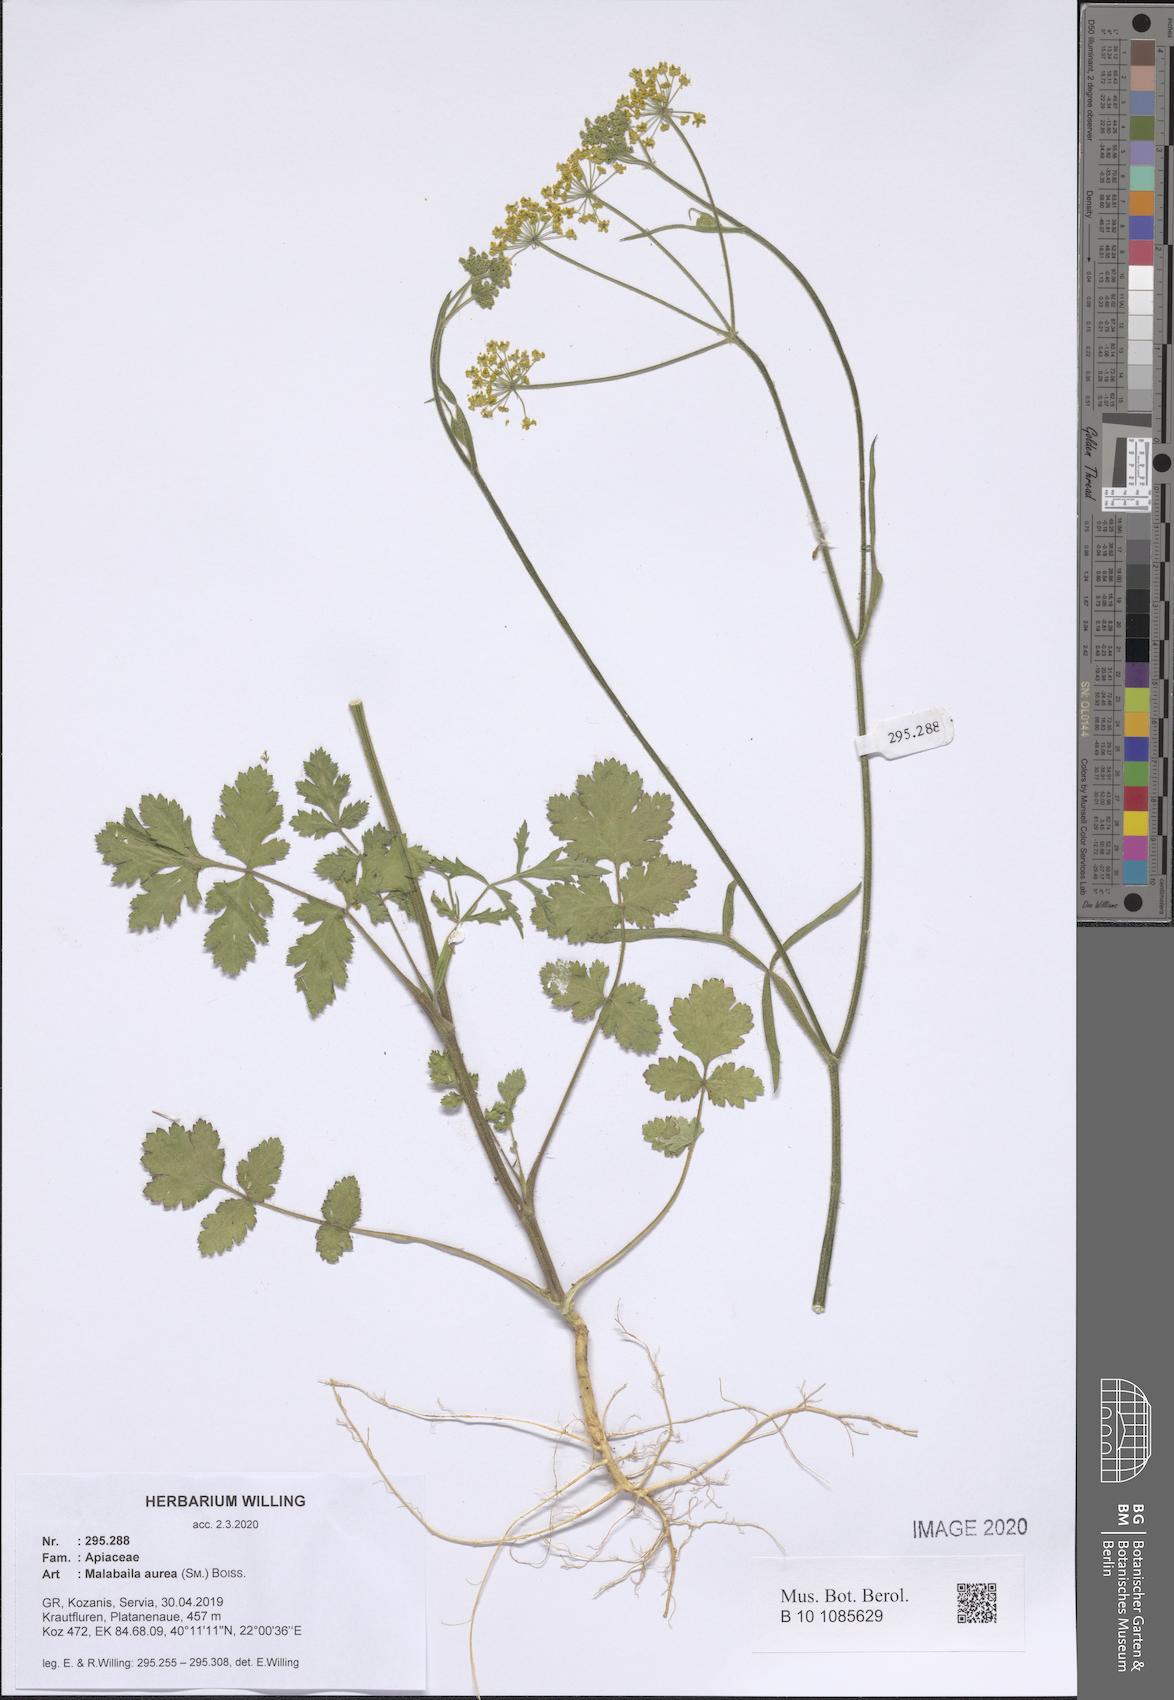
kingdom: Plantae
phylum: Tracheophyta
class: Magnoliopsida
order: Apiales
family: Apiaceae
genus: Leiotulus
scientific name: Leiotulus aureus
